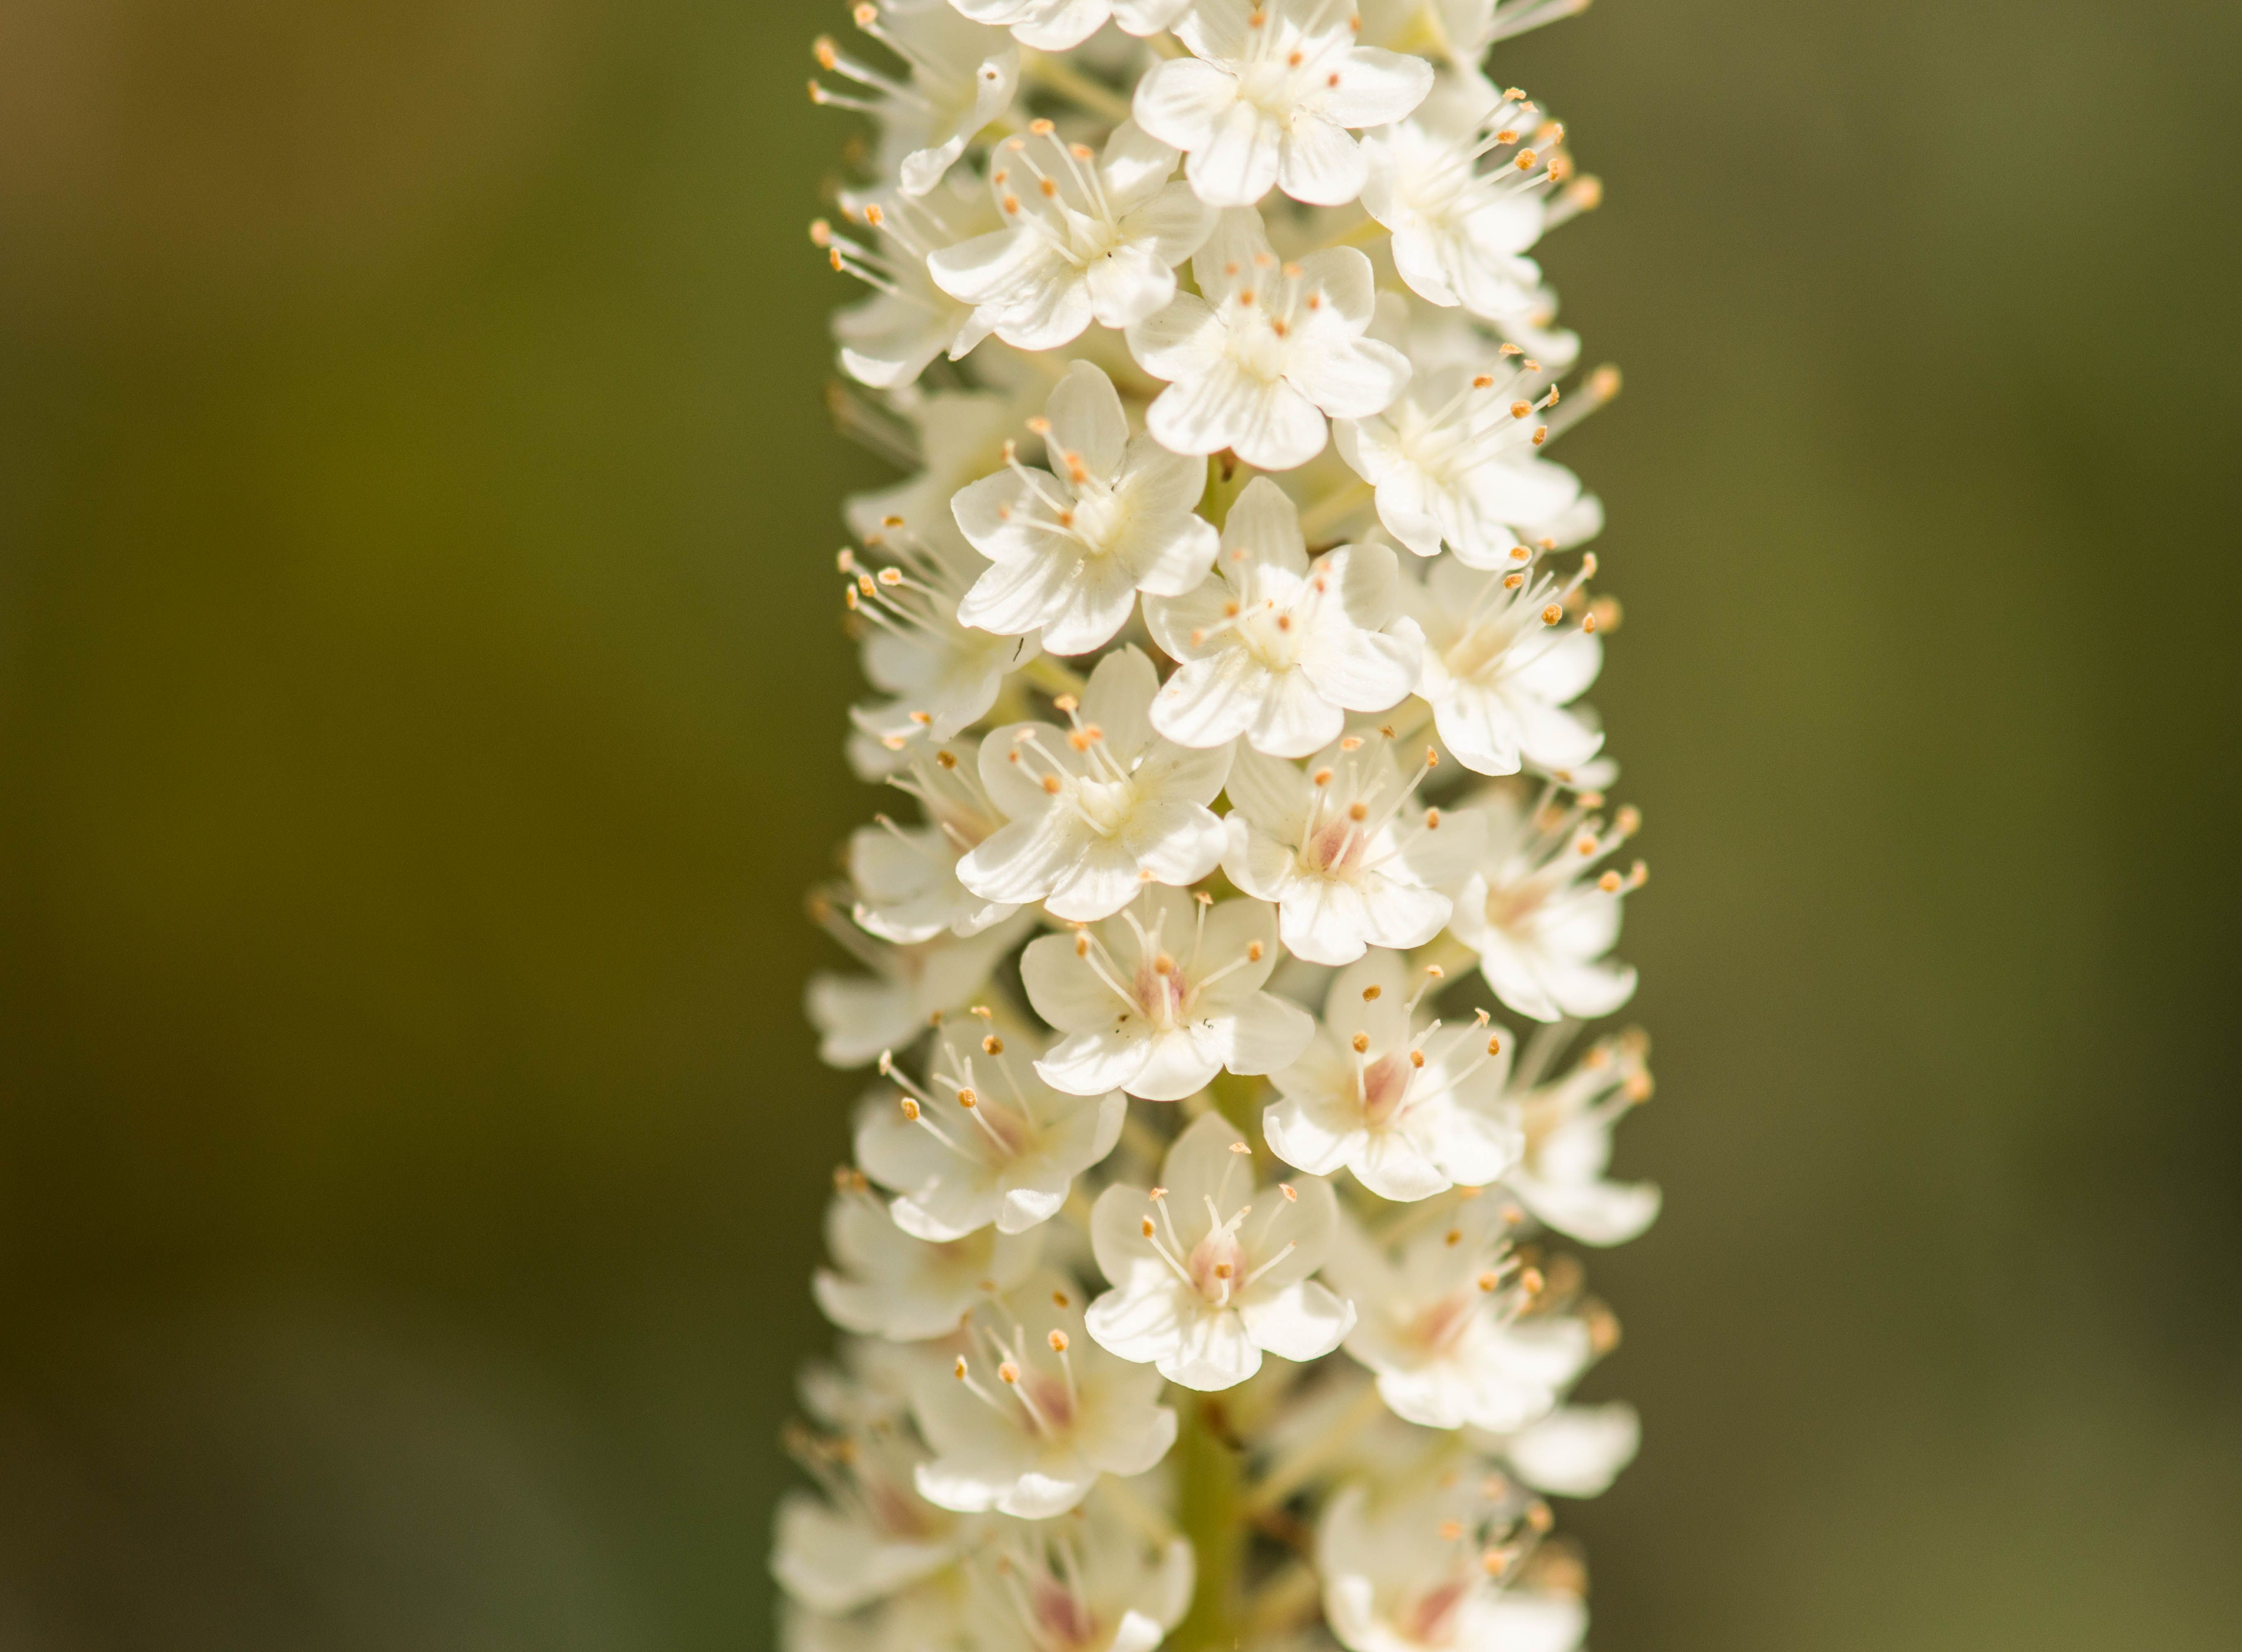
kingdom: Plantae
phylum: Tracheophyta
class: Liliopsida
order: Liliales
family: Melanthiaceae
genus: Stenanthium
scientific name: Stenanthium leimanthoides
